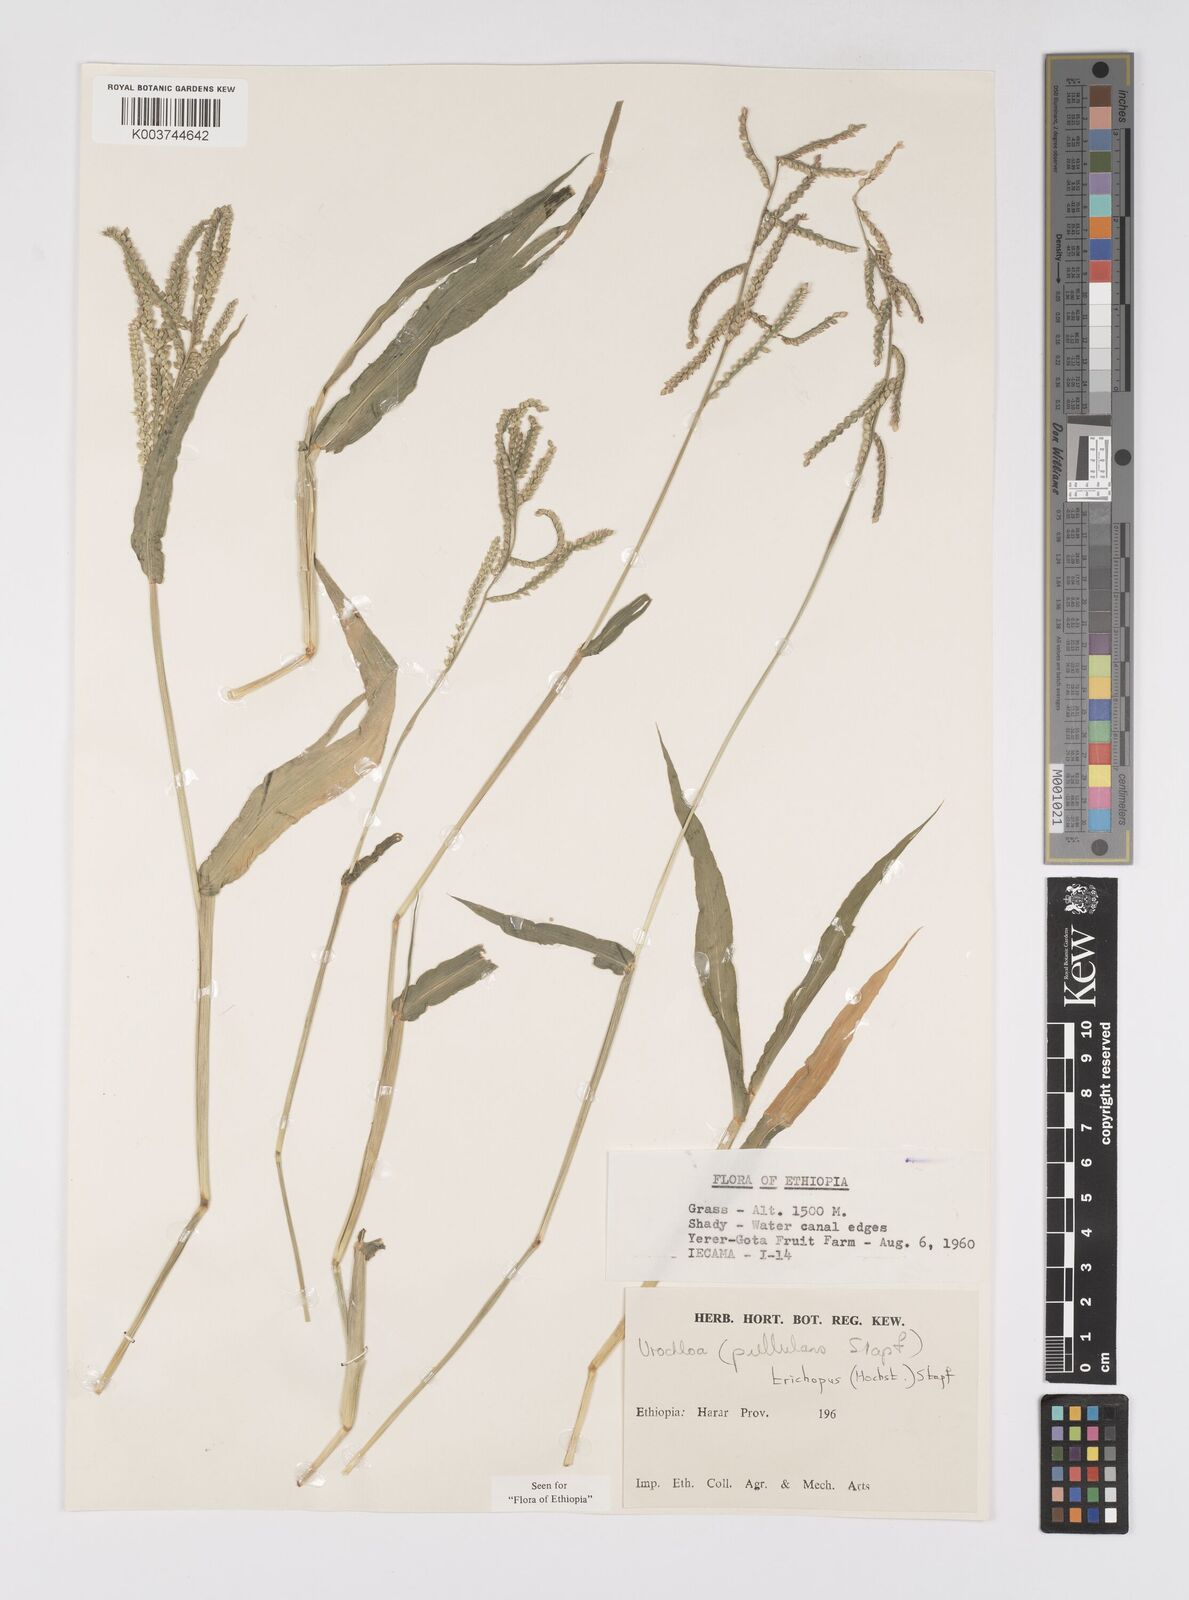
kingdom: Plantae
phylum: Tracheophyta
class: Liliopsida
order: Poales
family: Poaceae
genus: Urochloa
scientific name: Urochloa trichopus
